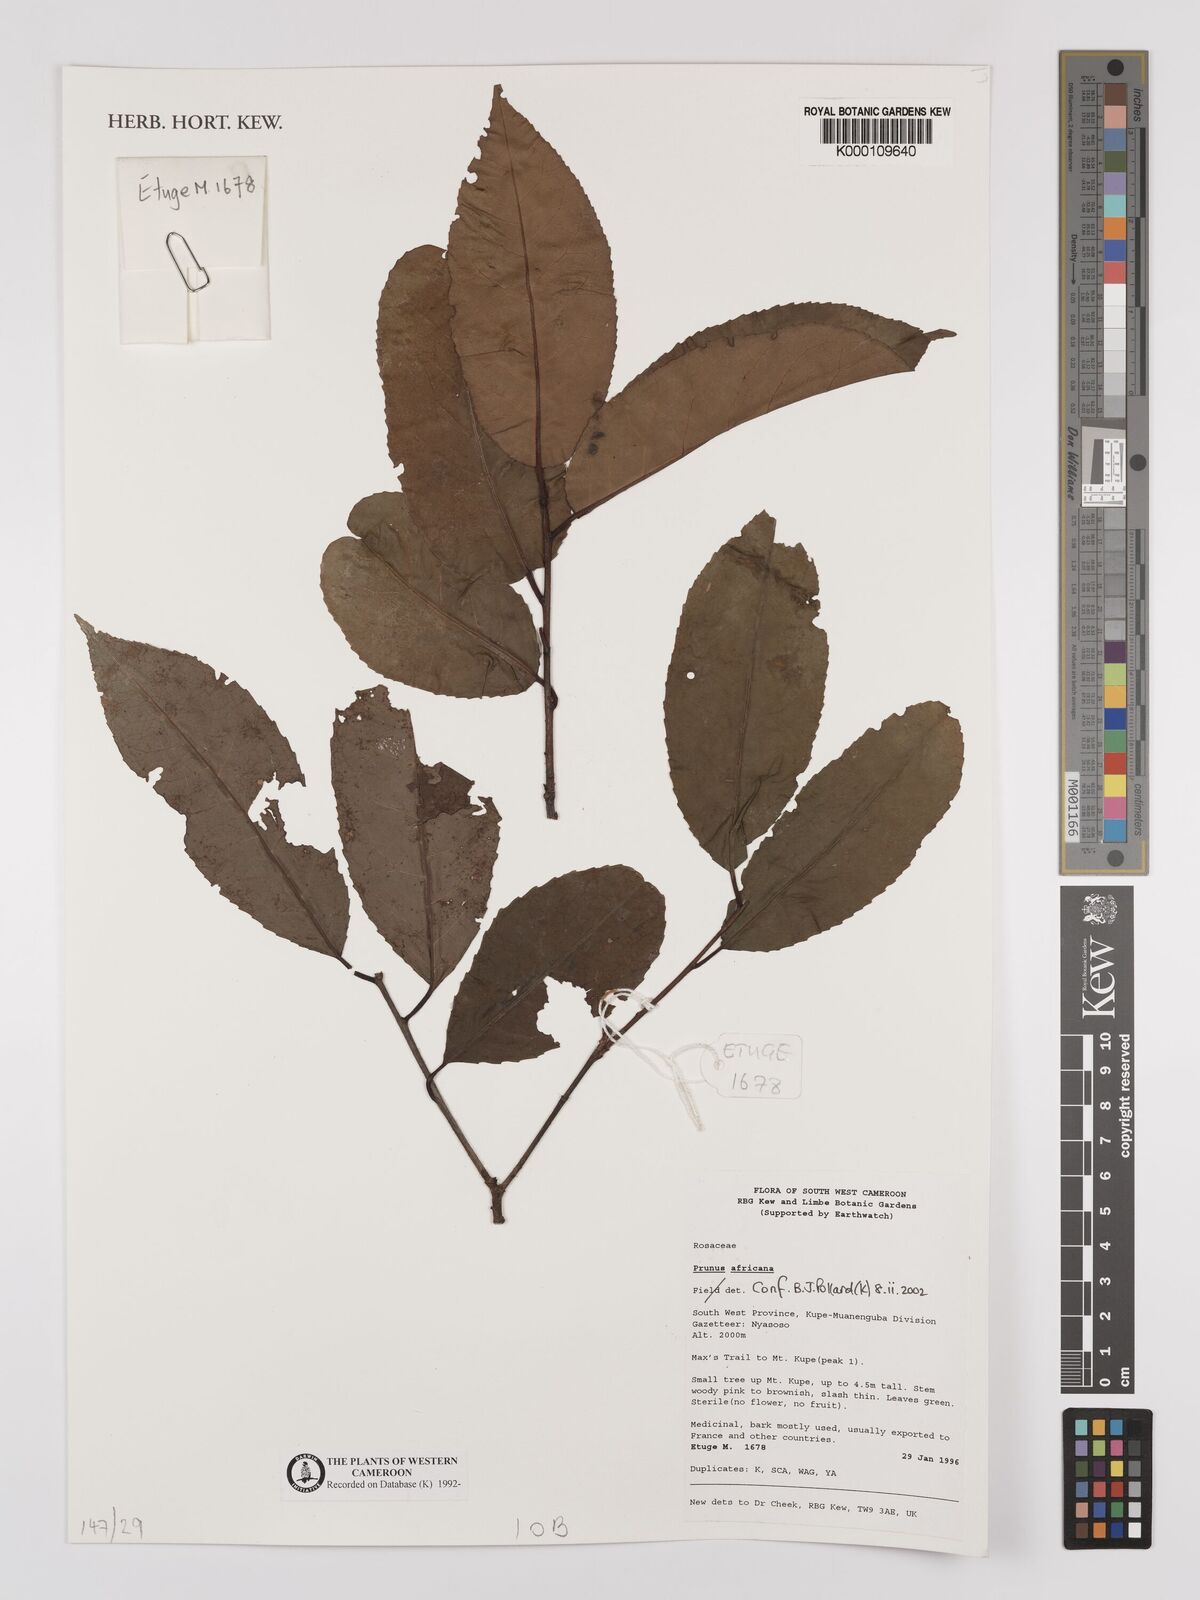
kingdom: Plantae
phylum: Tracheophyta
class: Magnoliopsida
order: Rosales
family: Rosaceae
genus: Prunus
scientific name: Prunus africana
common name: African cherry
